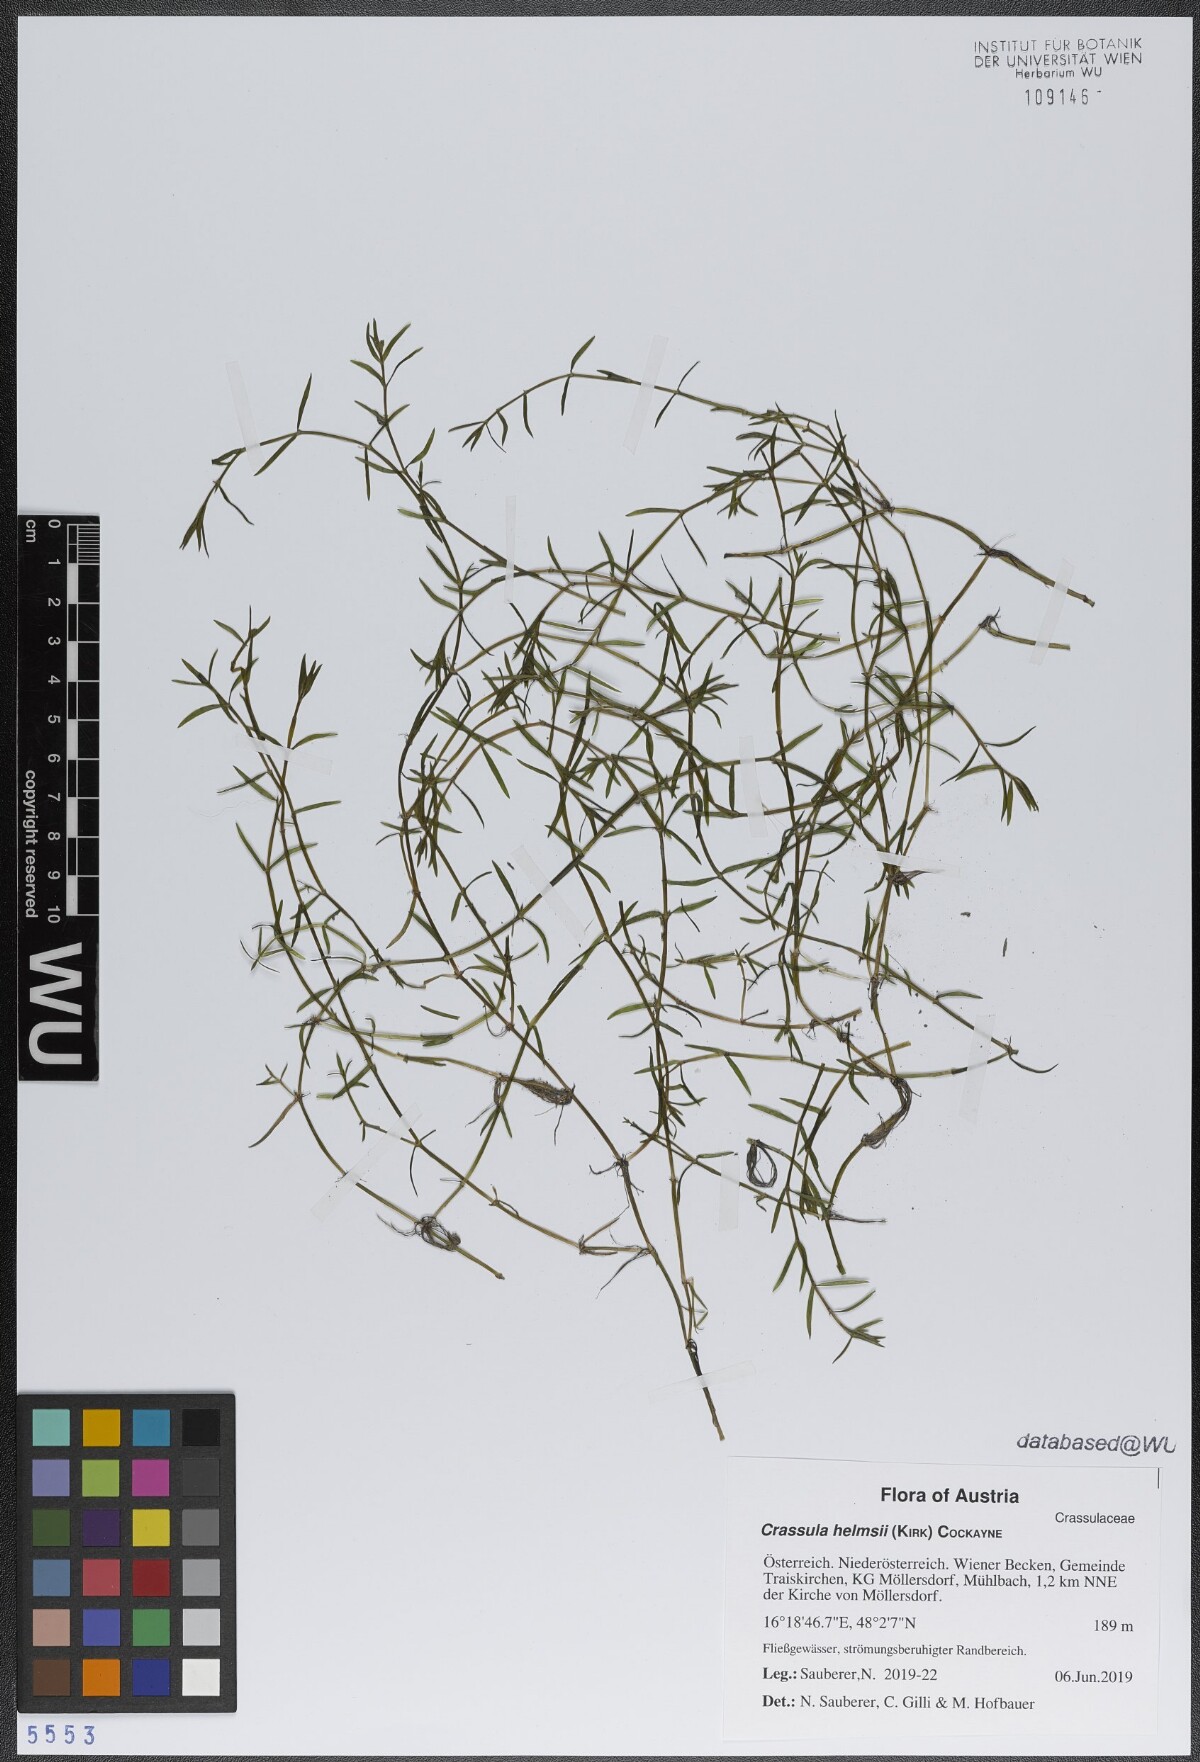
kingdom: Plantae
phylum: Tracheophyta
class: Magnoliopsida
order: Saxifragales
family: Crassulaceae
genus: Crassula
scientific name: Crassula helmsii
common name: New zealand pigmyweed
